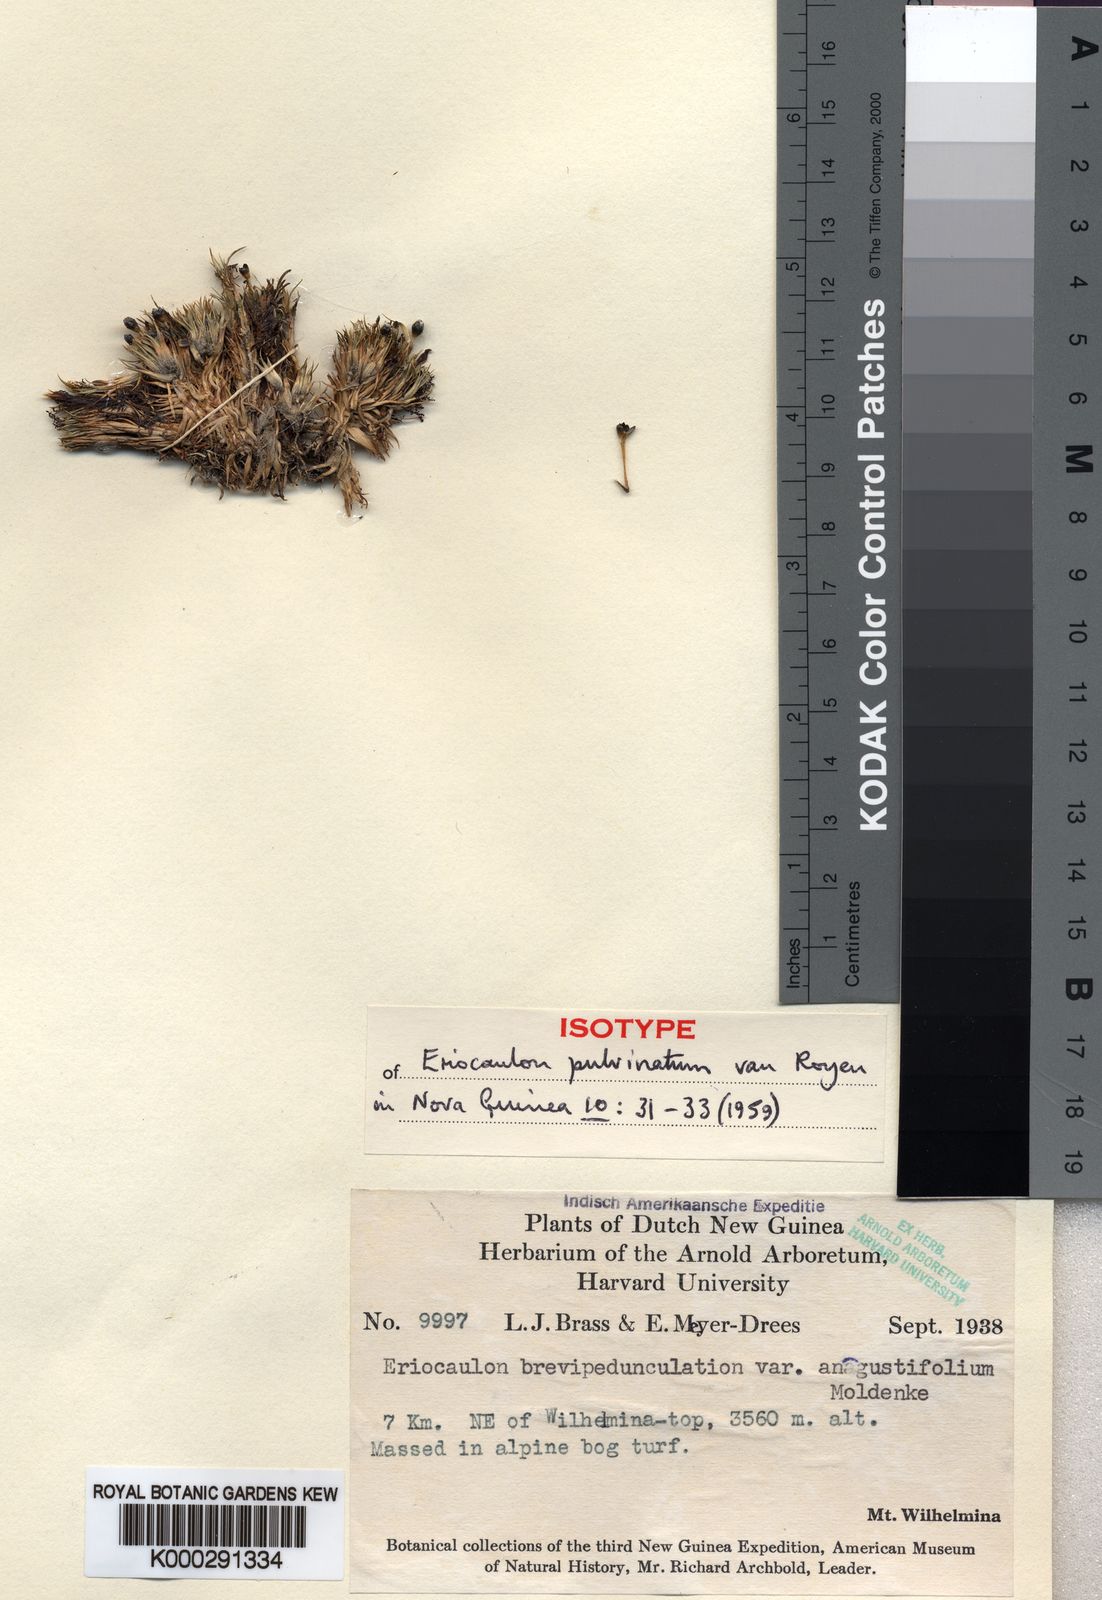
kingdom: Plantae
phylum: Tracheophyta
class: Liliopsida
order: Poales
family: Eriocaulaceae
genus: Eriocaulon
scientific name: Eriocaulon pulvinatum
